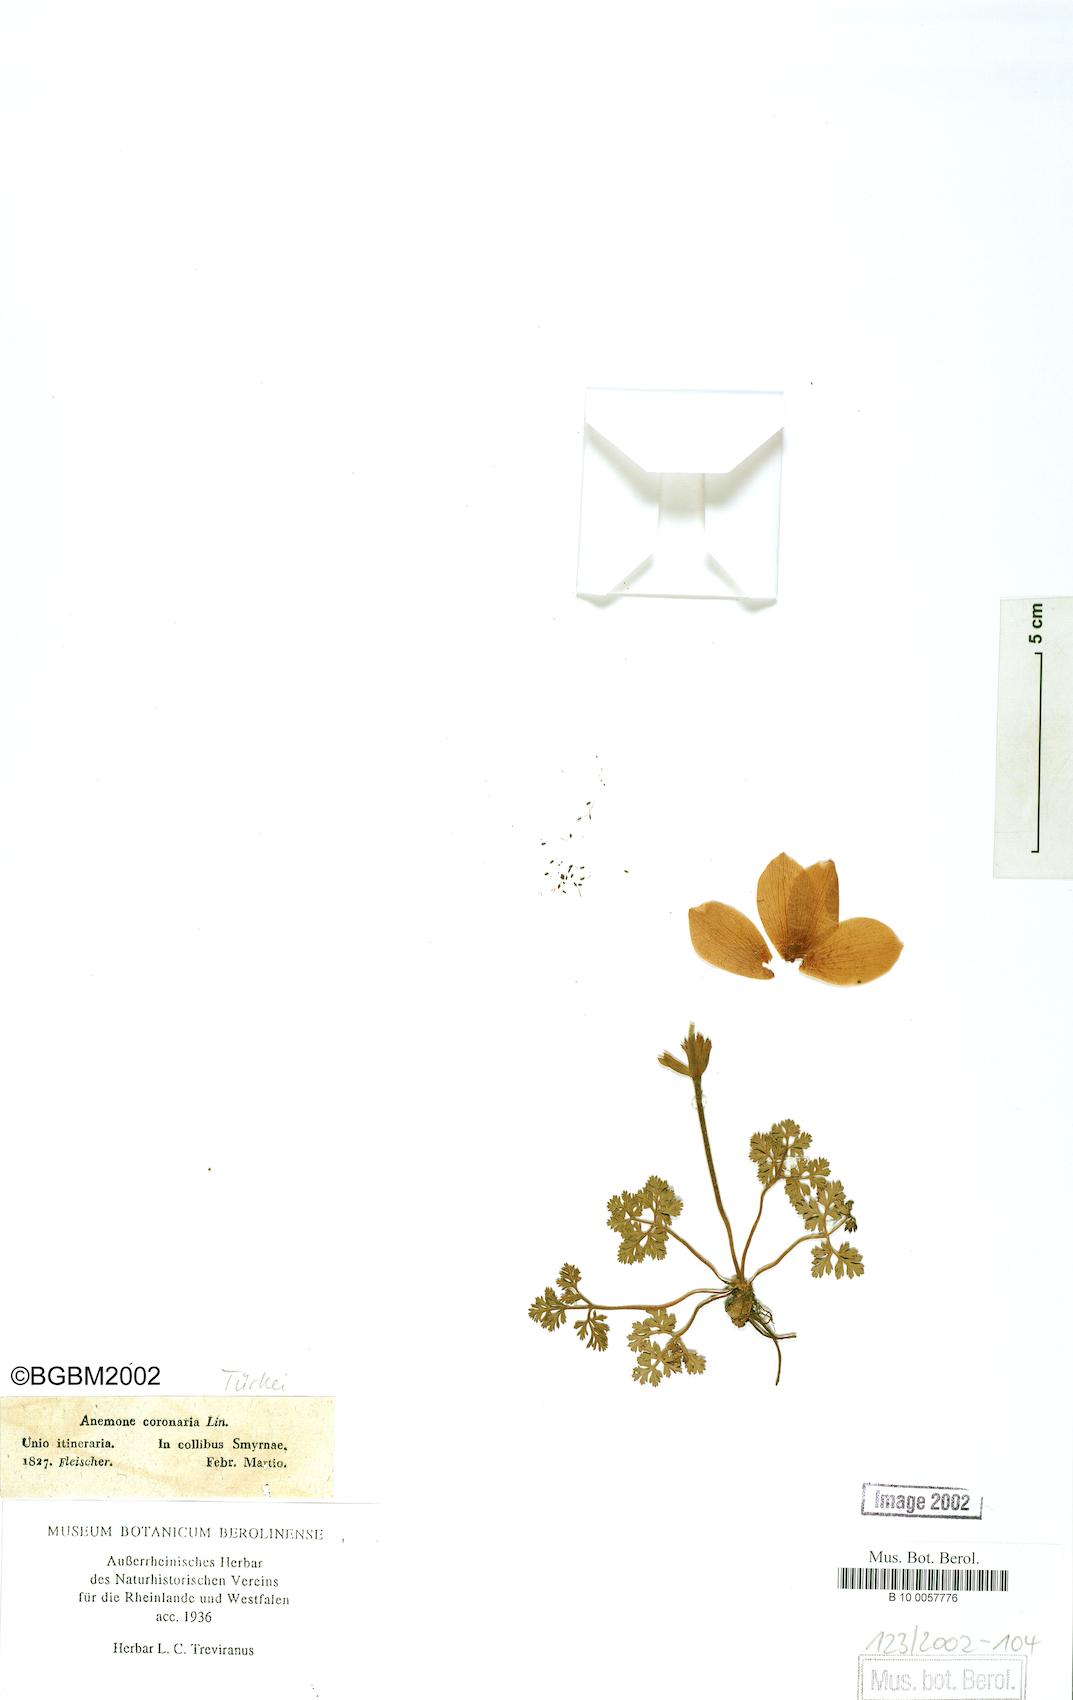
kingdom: Plantae
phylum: Tracheophyta
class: Magnoliopsida
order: Ranunculales
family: Ranunculaceae
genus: Anemone
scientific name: Anemone coronaria
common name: Poppy anemone
